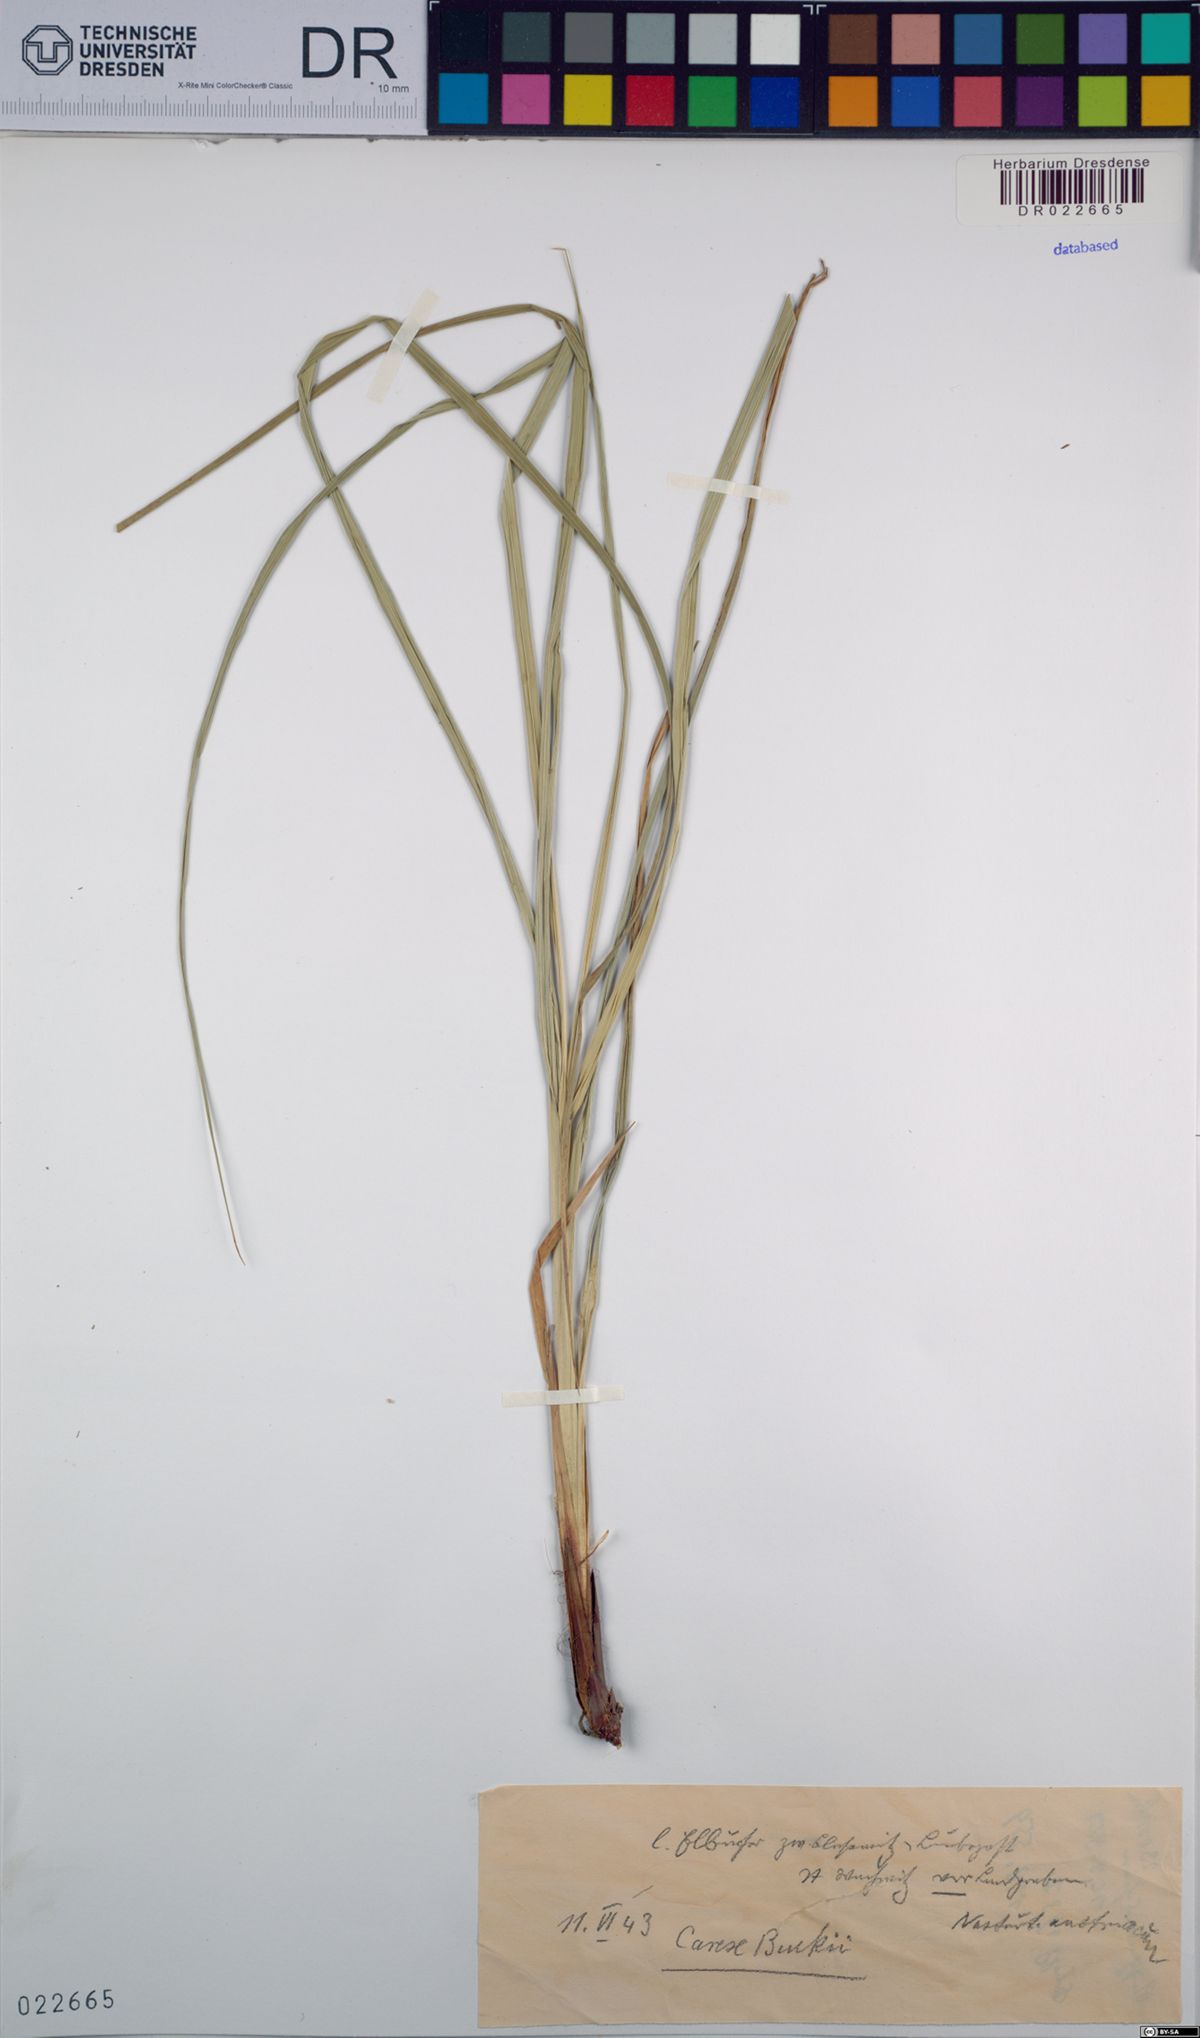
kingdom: Plantae
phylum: Tracheophyta
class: Liliopsida
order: Poales
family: Cyperaceae
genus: Carex
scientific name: Carex buekii
